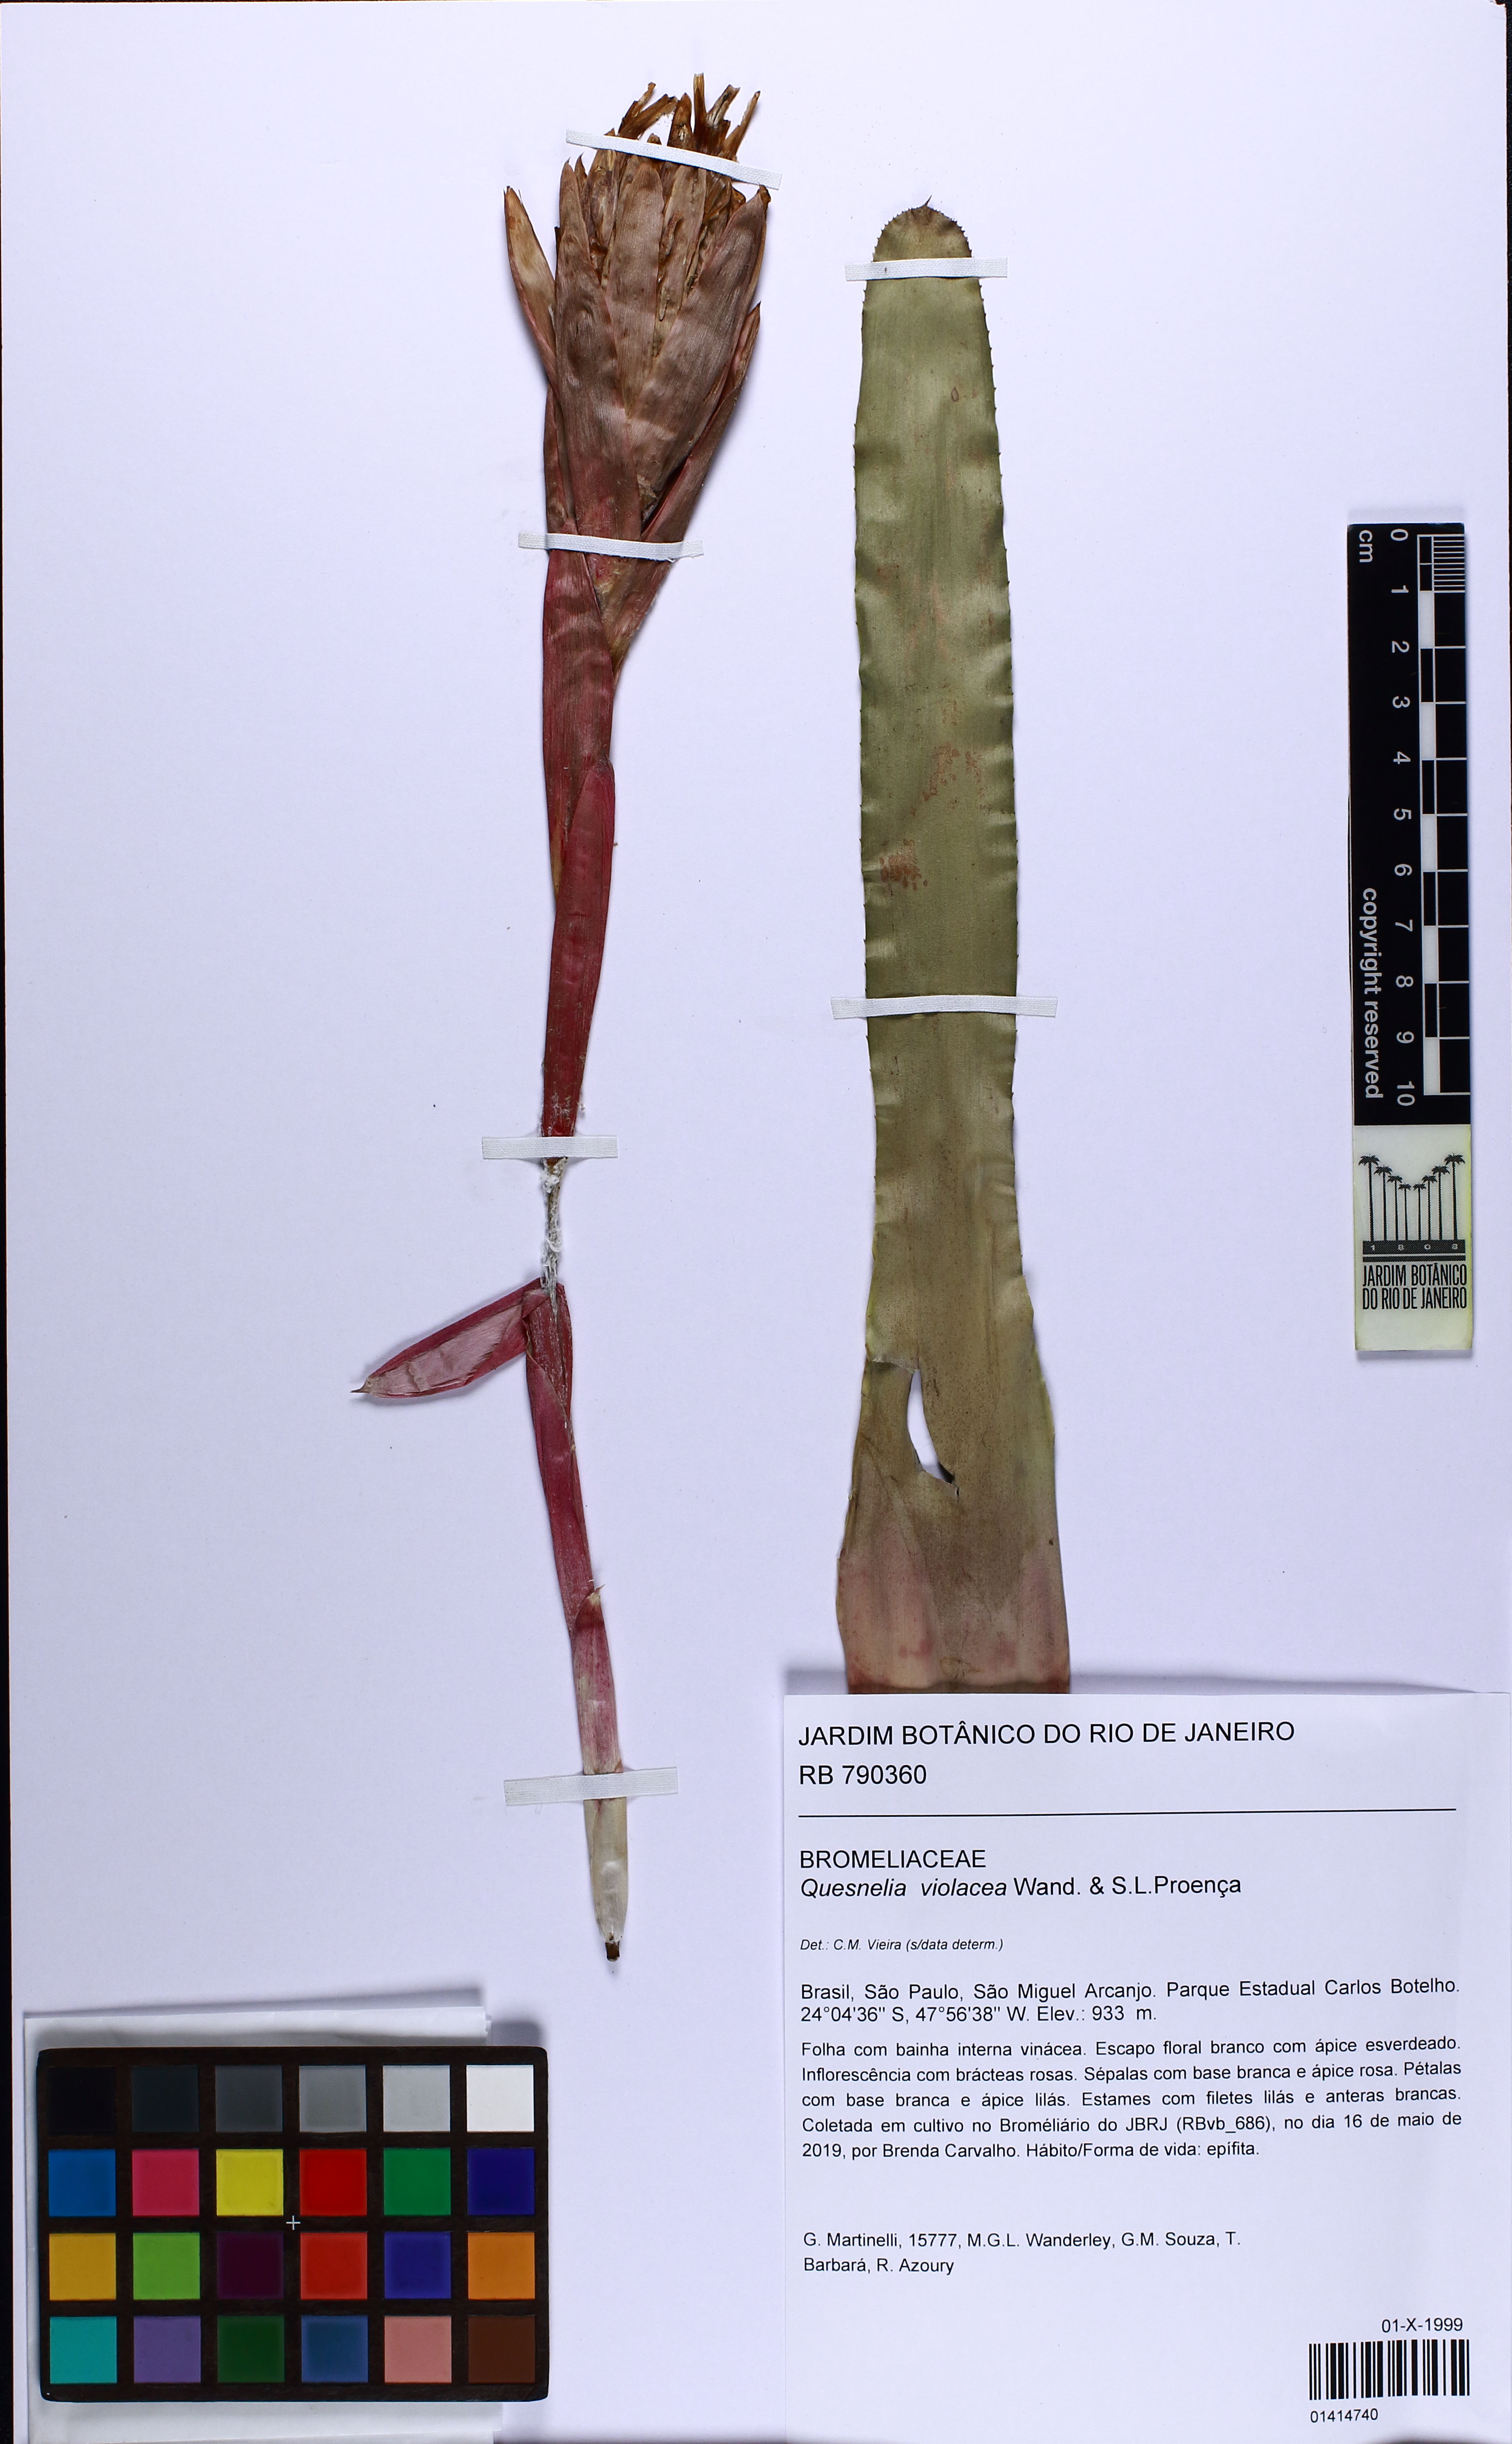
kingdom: Plantae
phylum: Tracheophyta
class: Liliopsida
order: Poales
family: Bromeliaceae
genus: Quesnelia
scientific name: Quesnelia violacea
